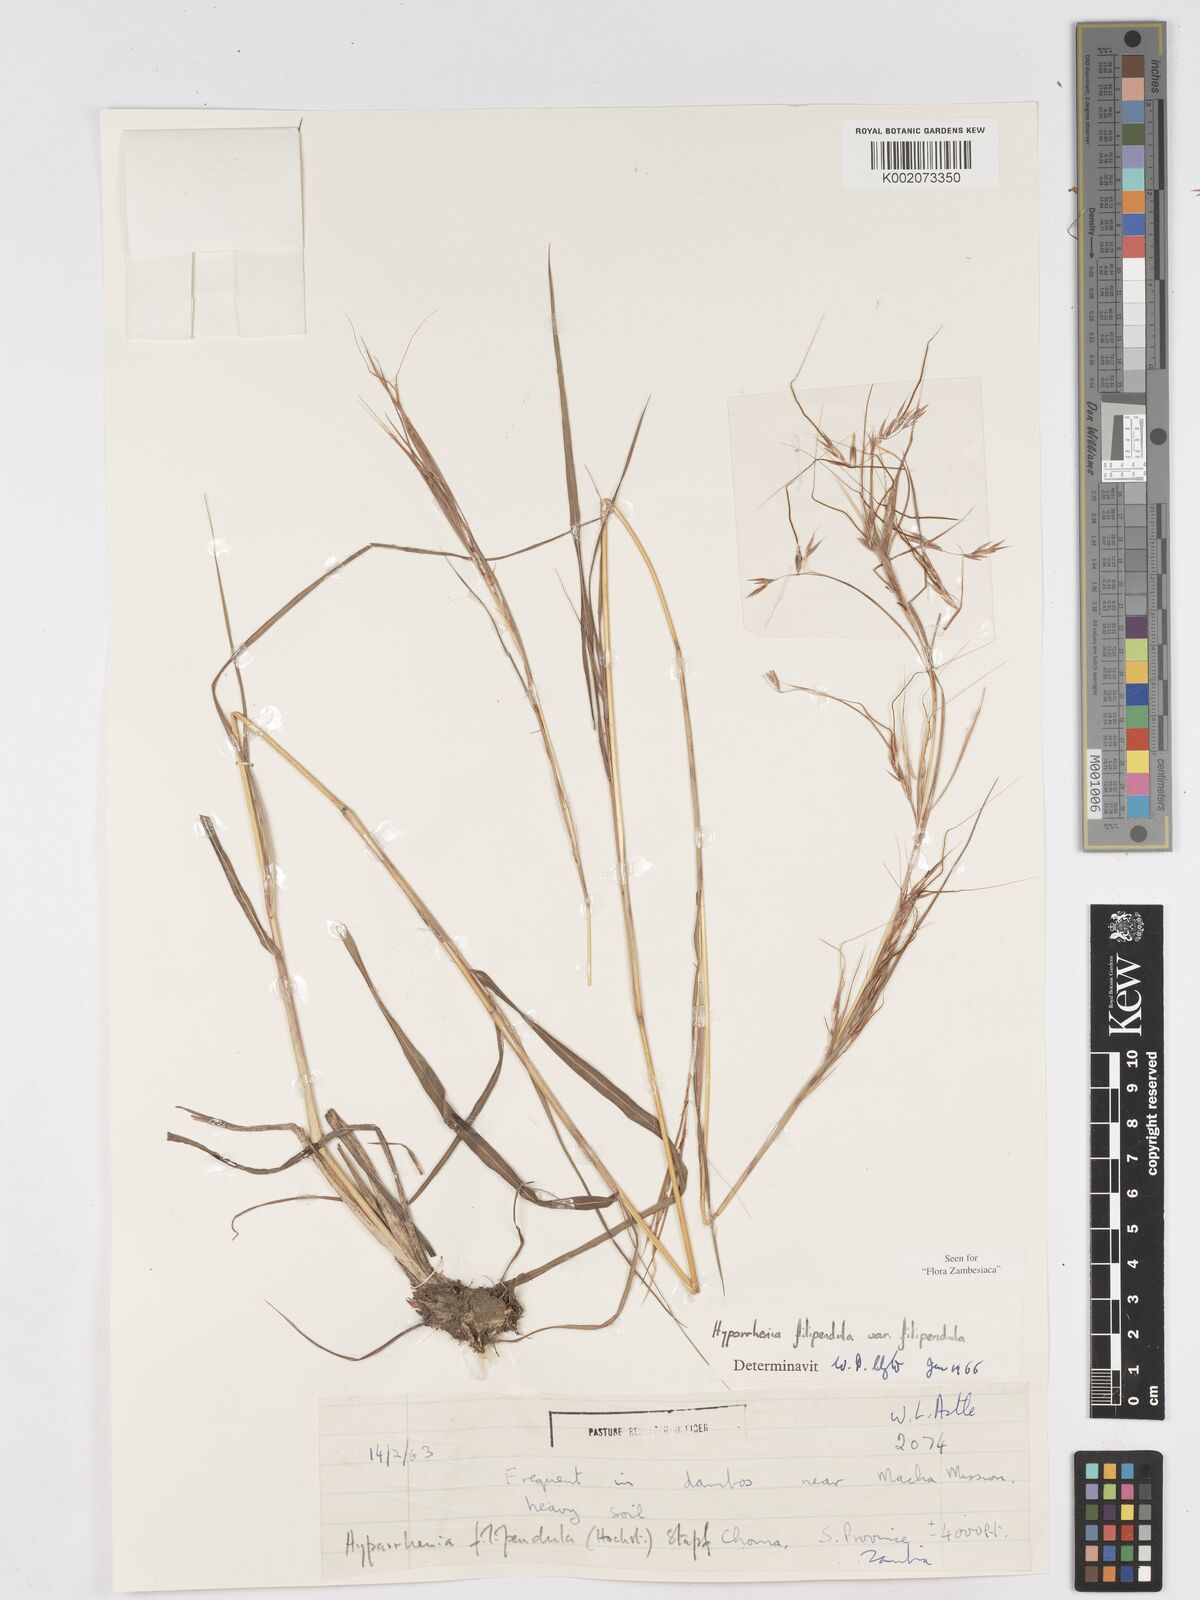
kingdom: Plantae
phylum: Tracheophyta
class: Liliopsida
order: Poales
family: Poaceae
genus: Hyparrhenia
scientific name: Hyparrhenia filipendula
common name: Tambookie grass
